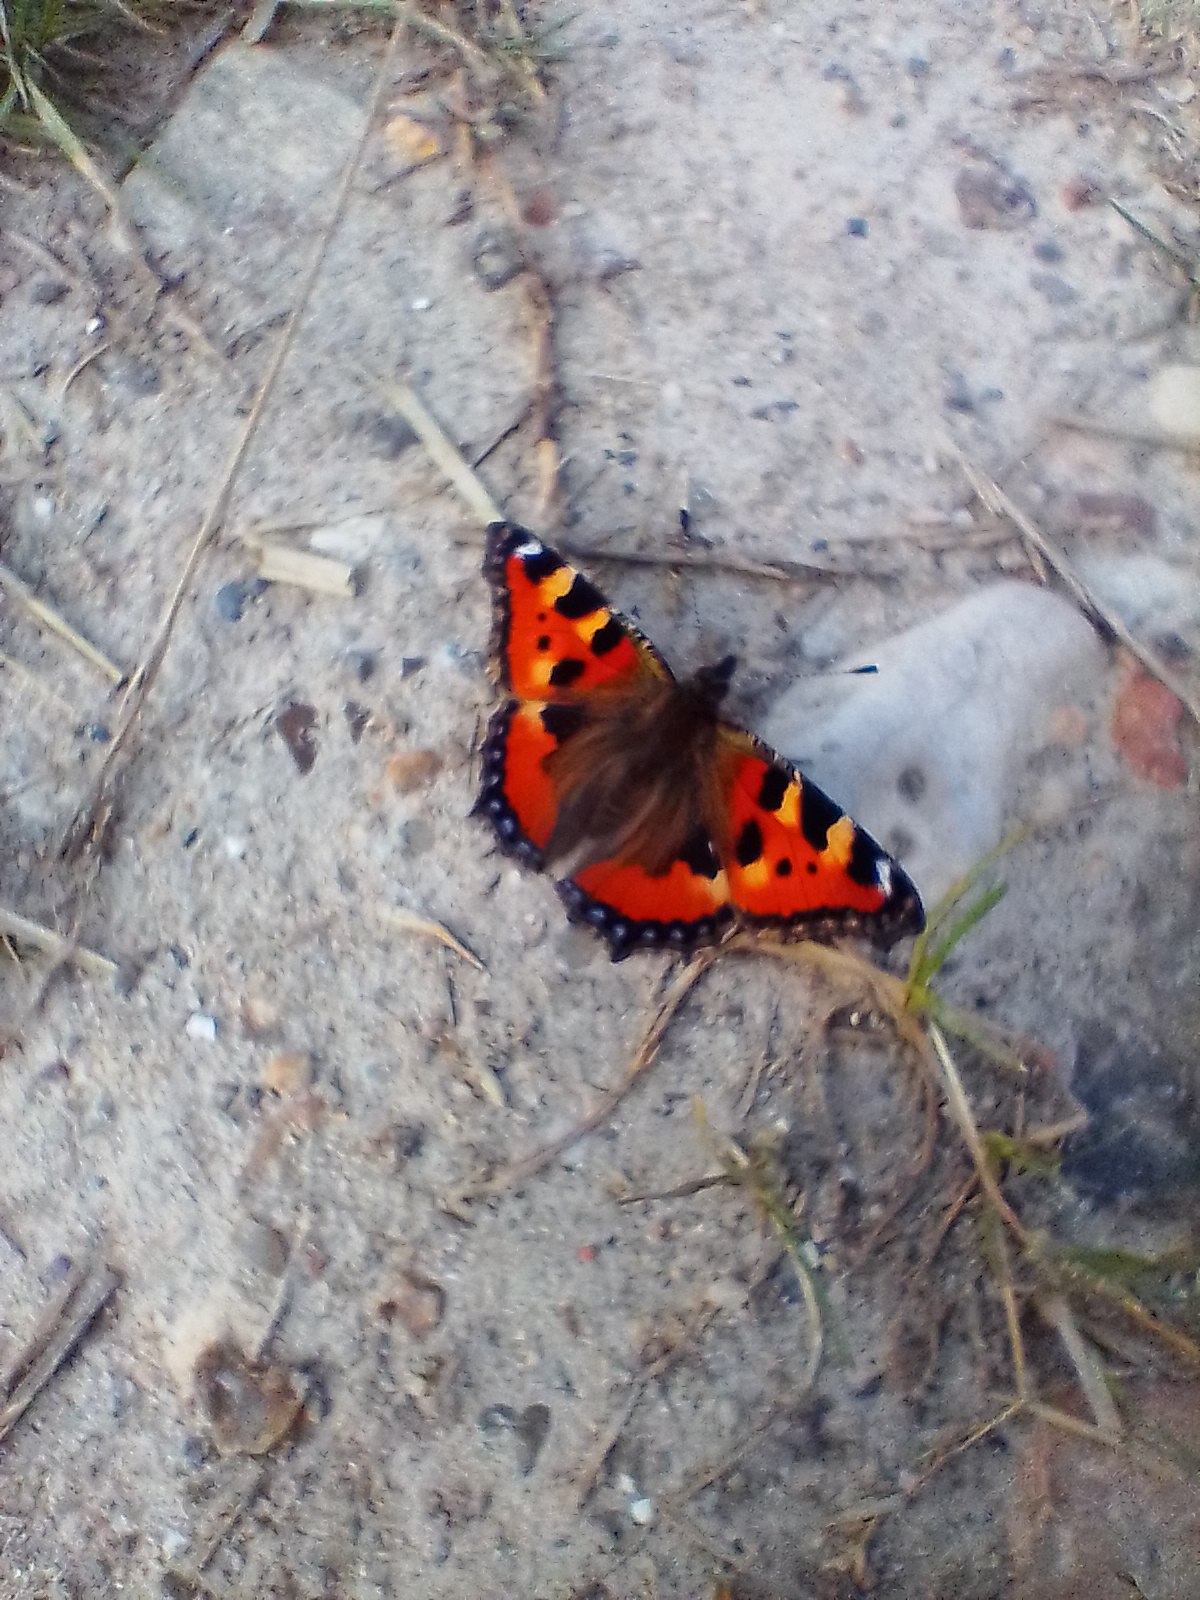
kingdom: Animalia
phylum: Arthropoda
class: Insecta
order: Lepidoptera
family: Nymphalidae
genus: Aglais
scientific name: Aglais urticae
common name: Nældens takvinge
